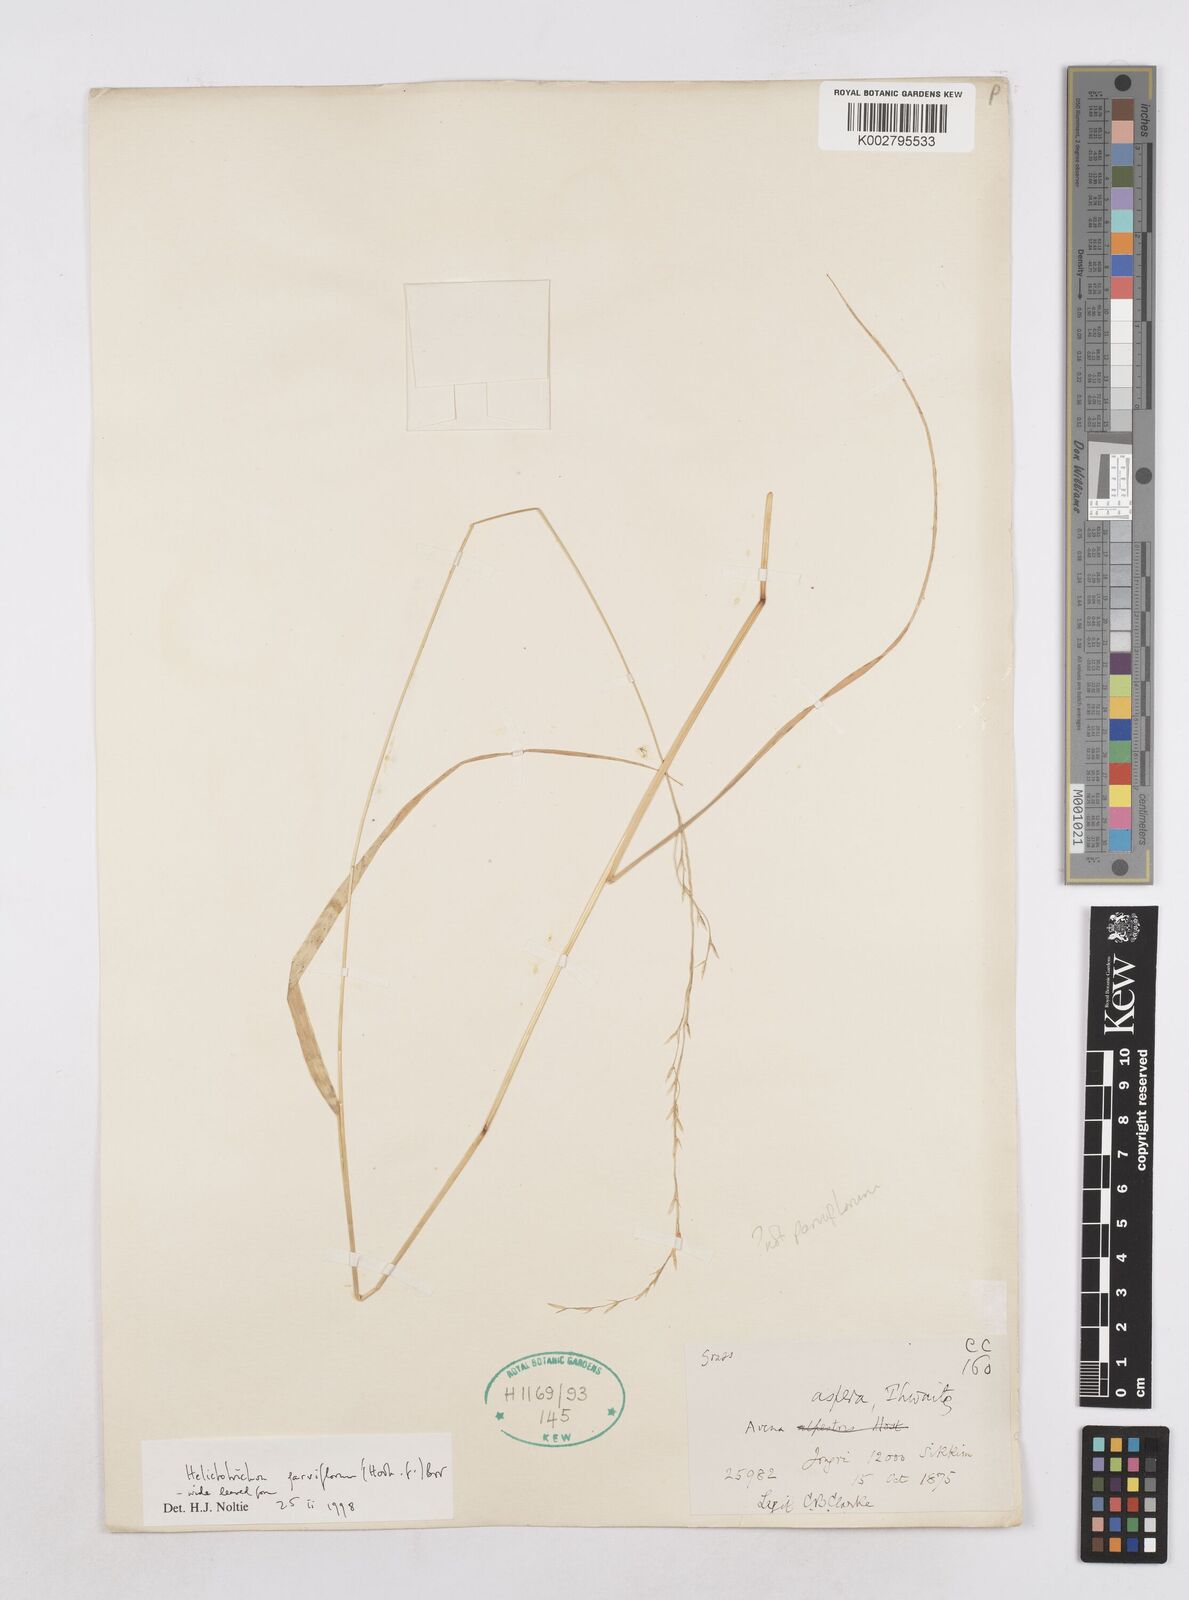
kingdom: Plantae
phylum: Tracheophyta
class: Liliopsida
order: Poales
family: Poaceae
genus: Trisetopsis
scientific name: Trisetopsis junghuhnii
